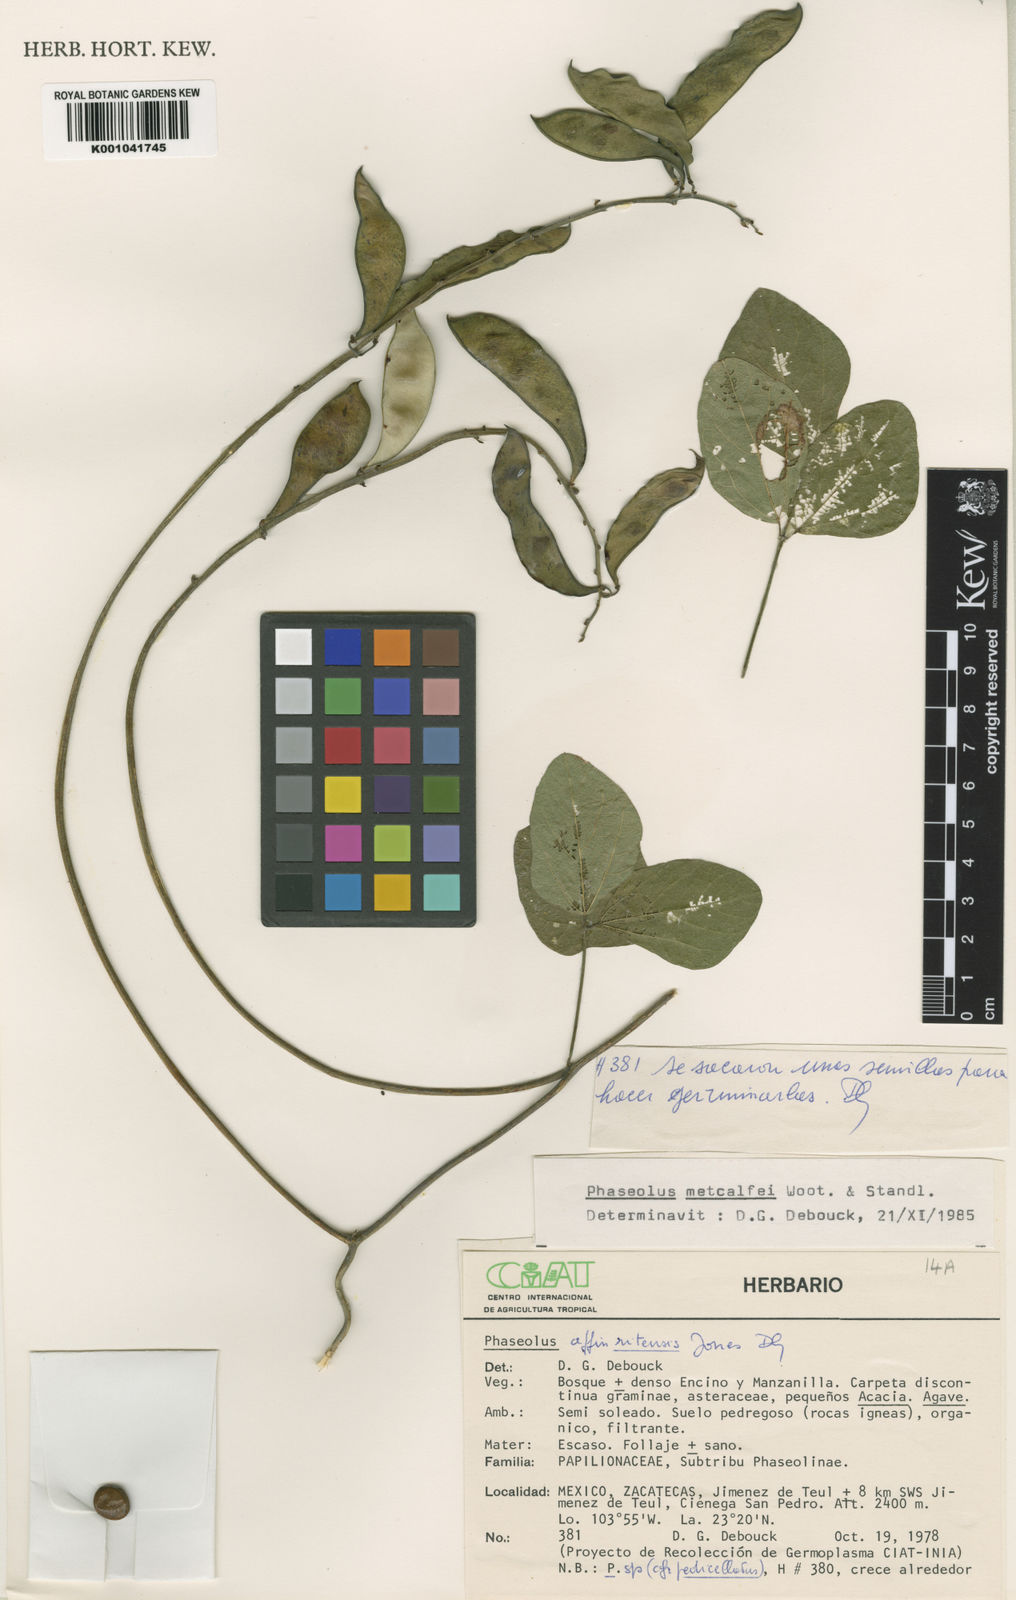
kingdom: Plantae
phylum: Tracheophyta
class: Magnoliopsida
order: Fabales
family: Fabaceae
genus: Phaseolus
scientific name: Phaseolus
